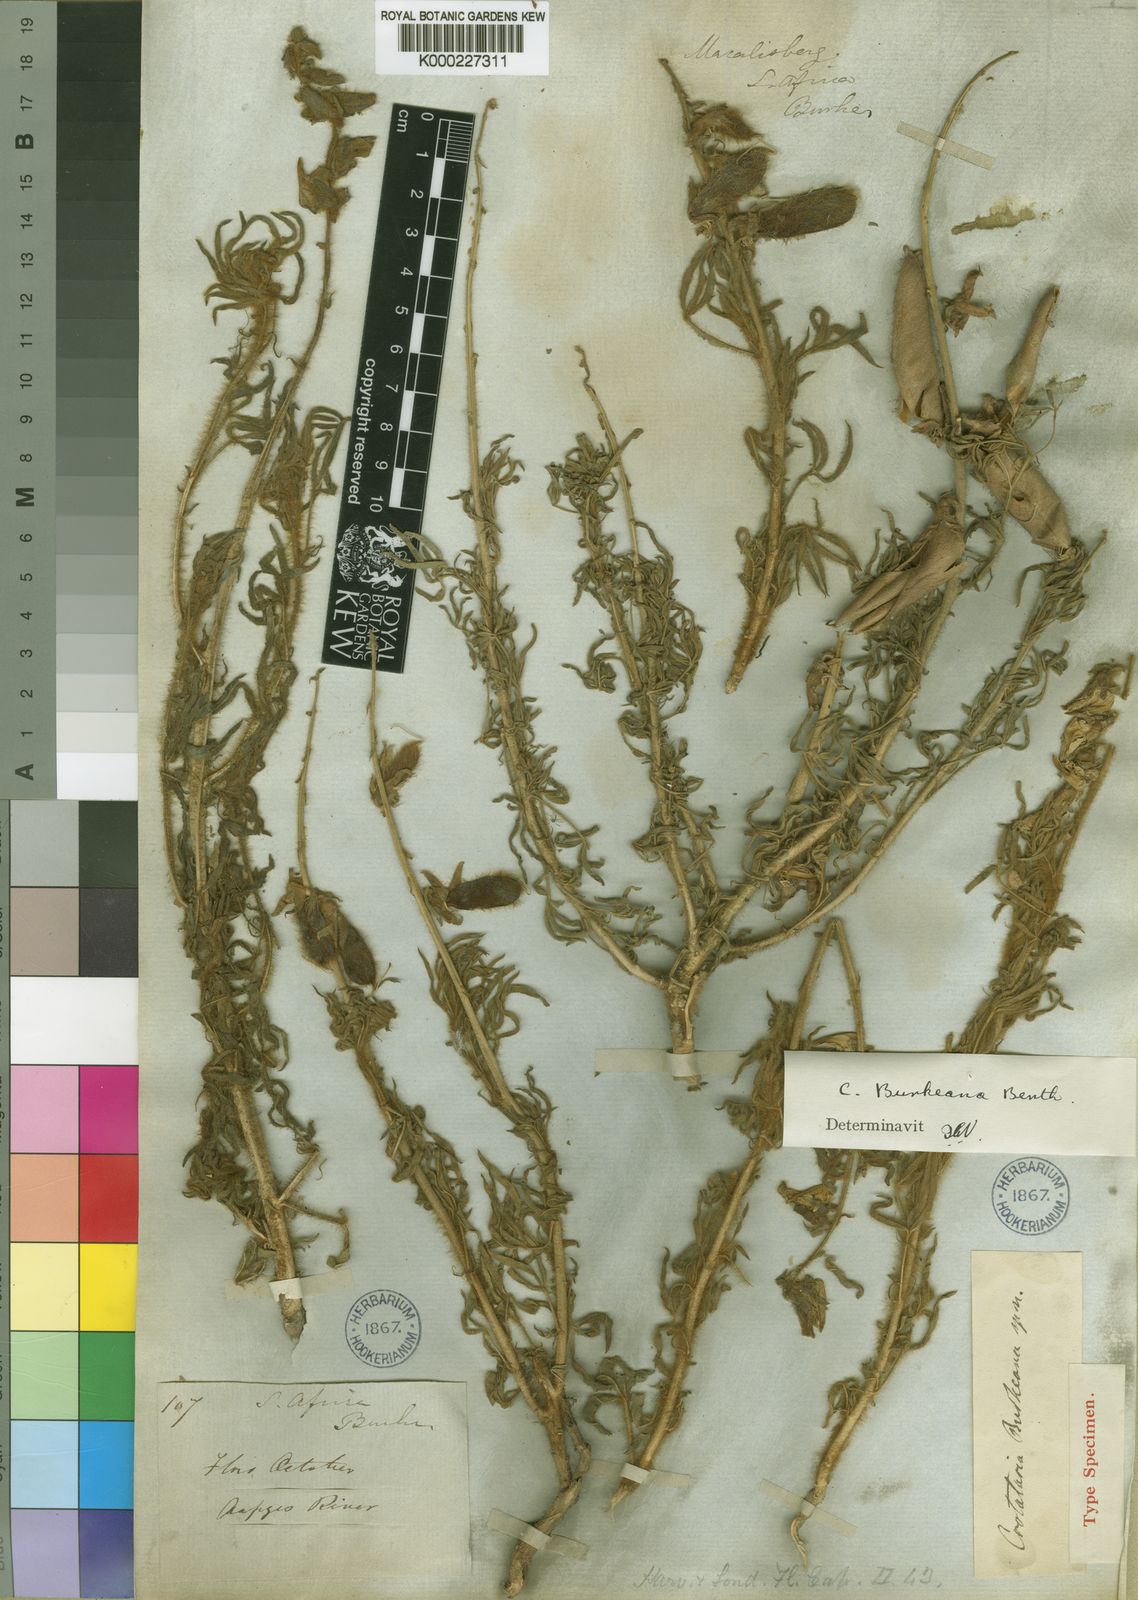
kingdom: Plantae
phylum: Tracheophyta
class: Magnoliopsida
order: Fabales
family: Fabaceae
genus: Crotalaria
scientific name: Crotalaria burkeana
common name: Rattlebush
